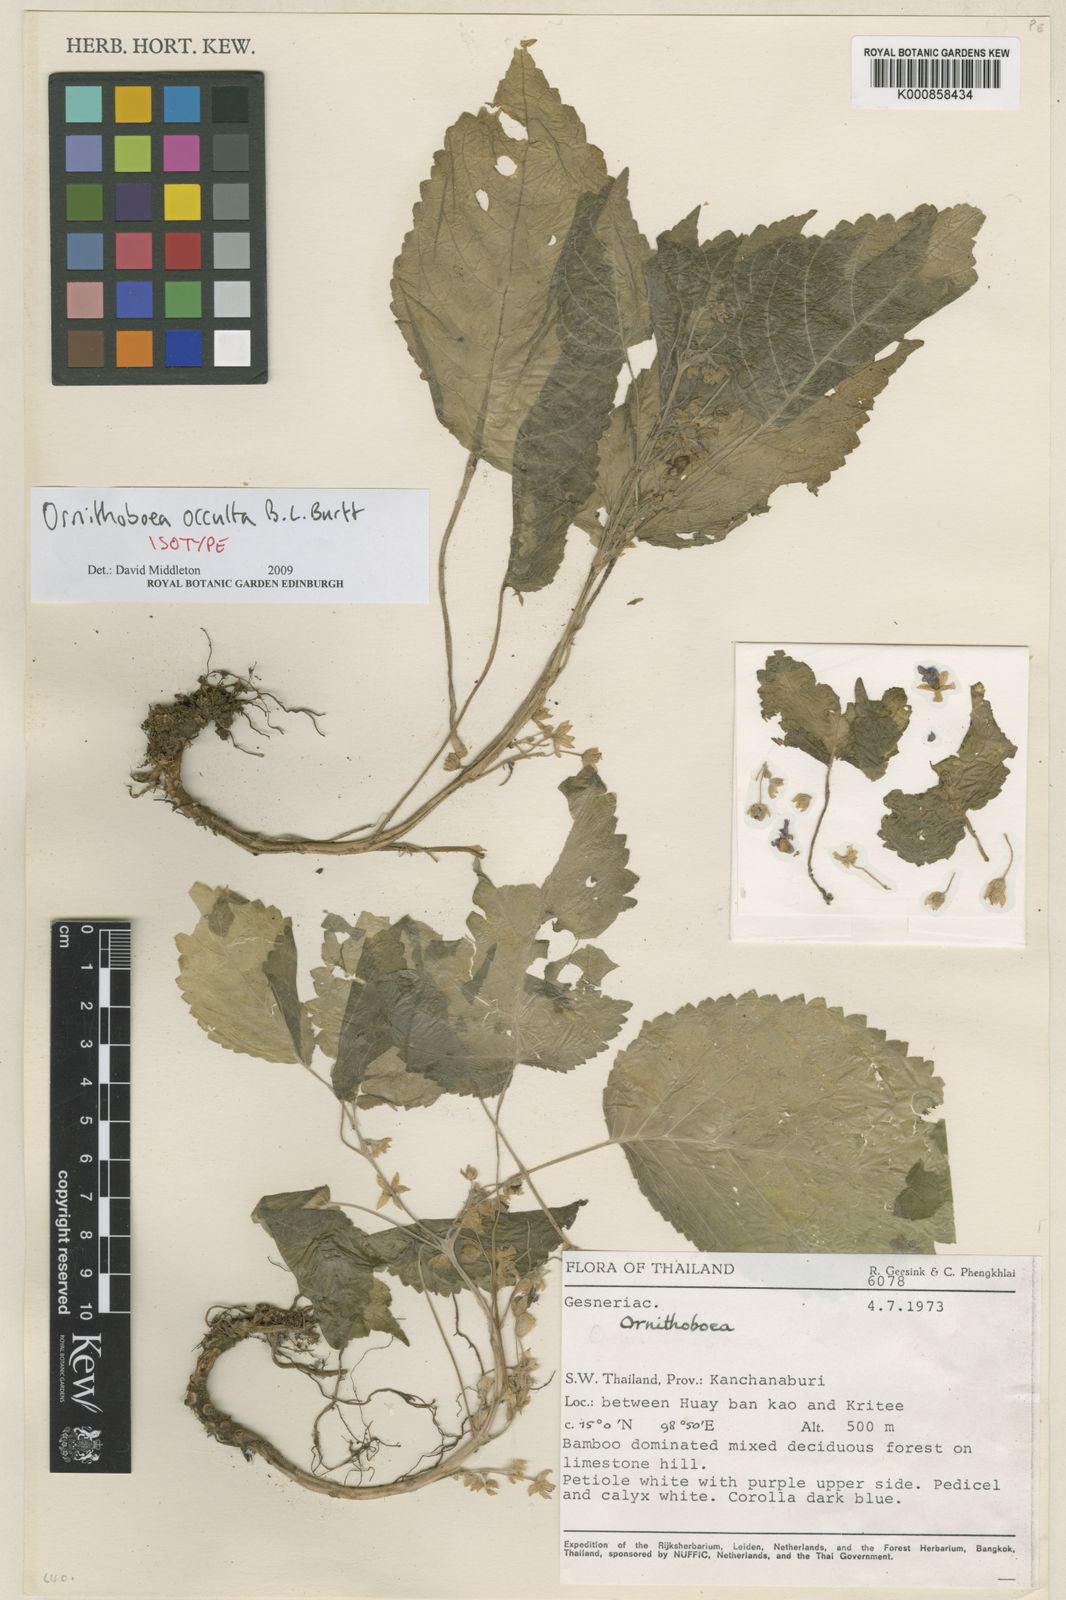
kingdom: Plantae
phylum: Tracheophyta
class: Magnoliopsida
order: Lamiales
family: Gesneriaceae
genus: Ornithoboea
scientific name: Ornithoboea occulta
